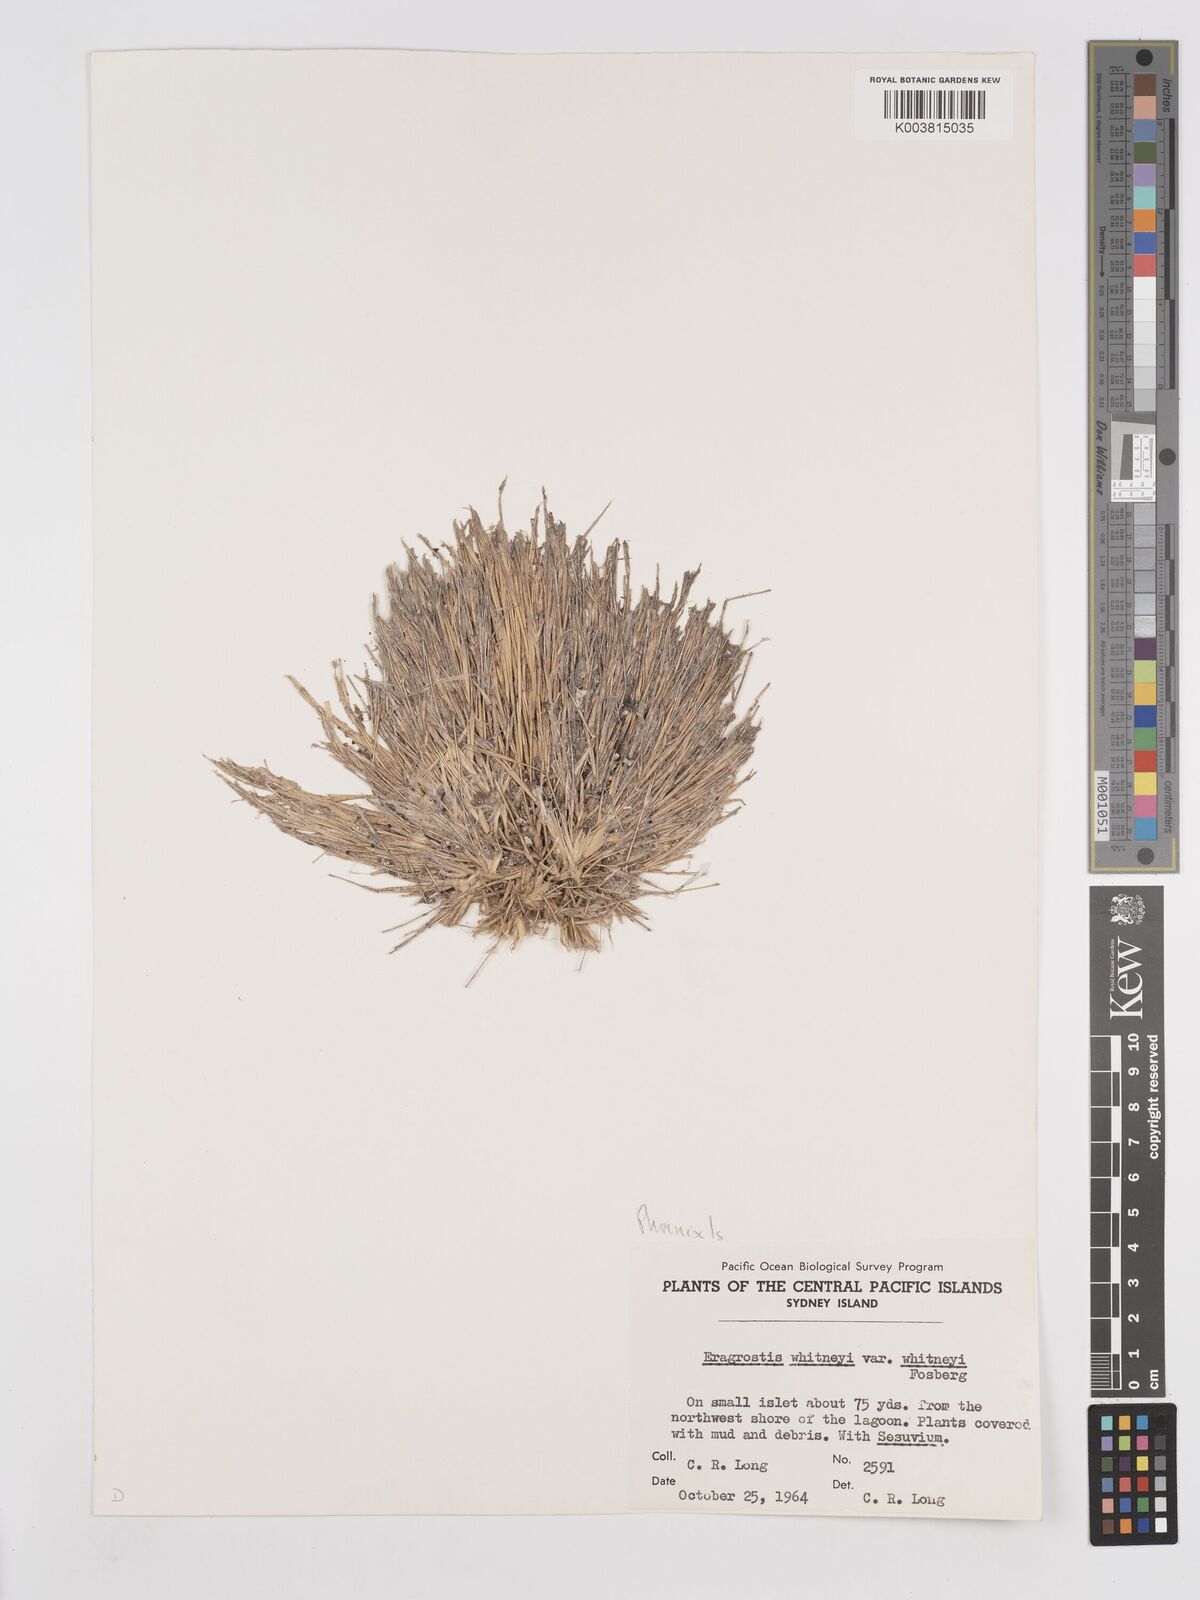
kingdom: Plantae
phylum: Tracheophyta
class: Liliopsida
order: Poales
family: Poaceae
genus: Eragrostis
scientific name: Eragrostis paupera
